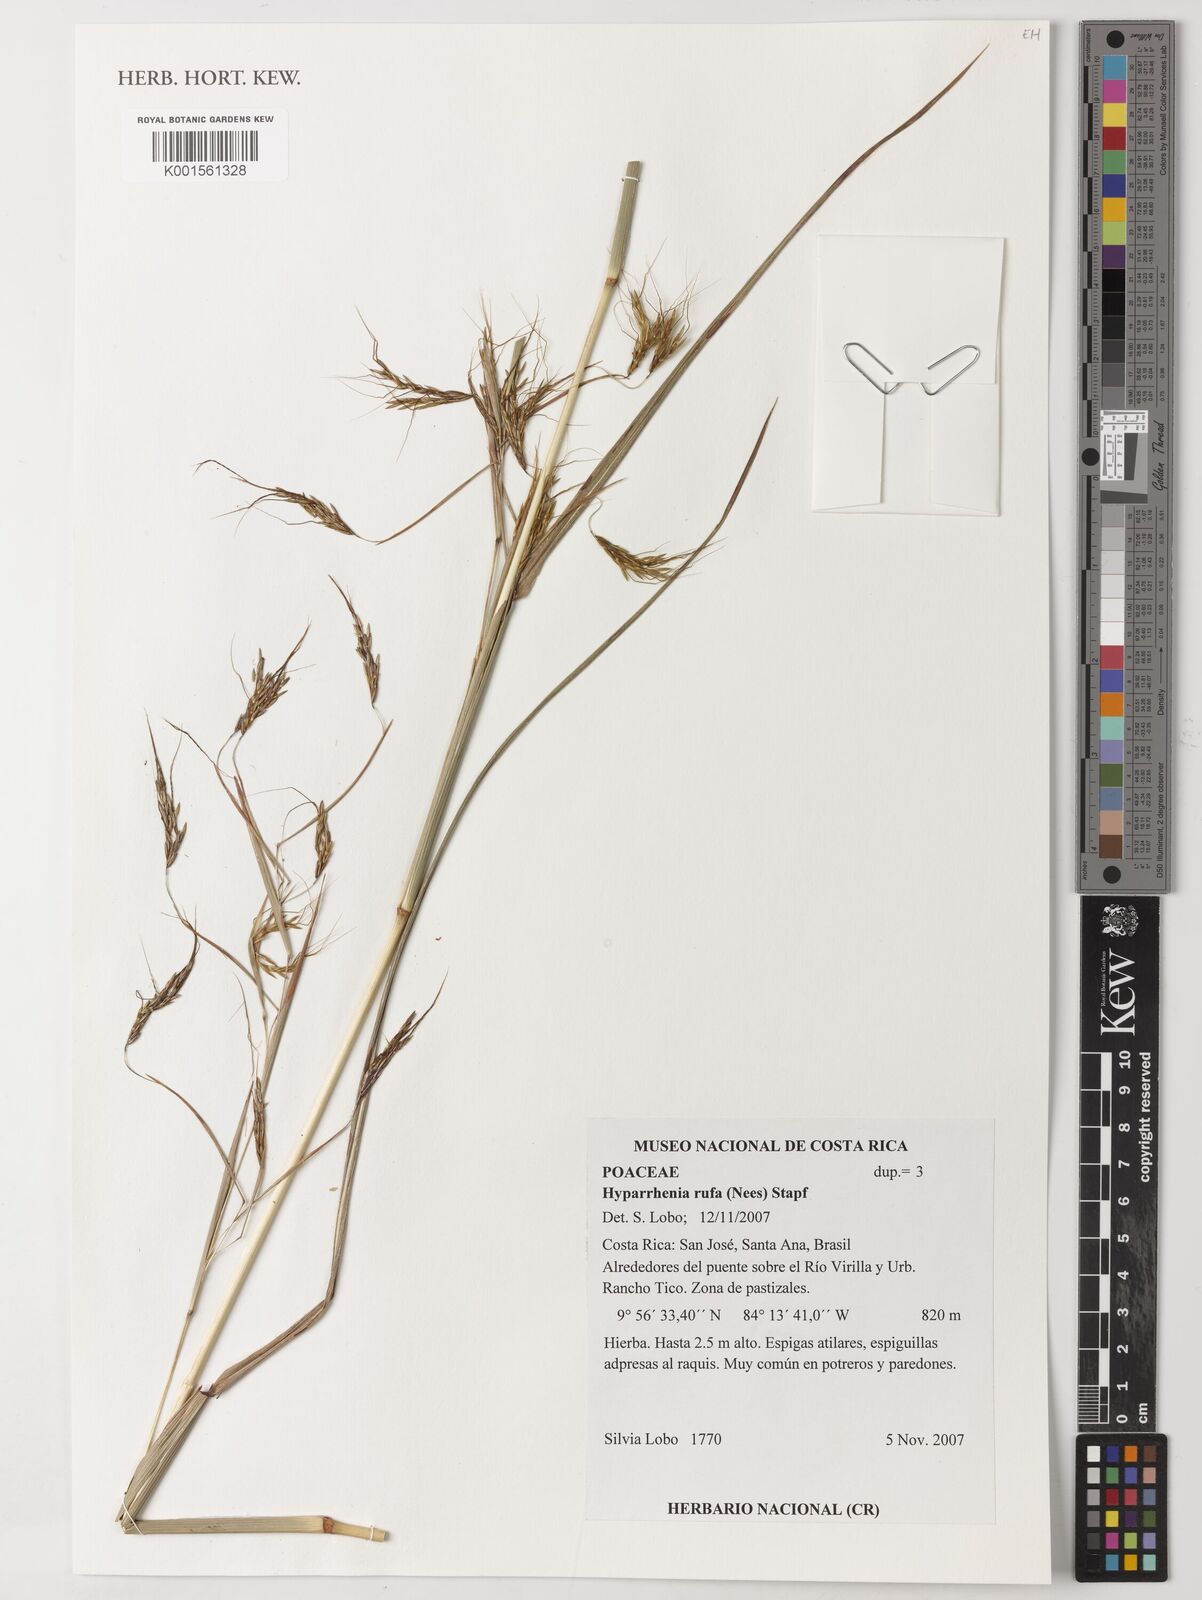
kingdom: Plantae
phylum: Tracheophyta
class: Liliopsida
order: Poales
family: Poaceae
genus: Hyparrhenia
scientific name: Hyparrhenia rufa
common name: Jaraguagrass
